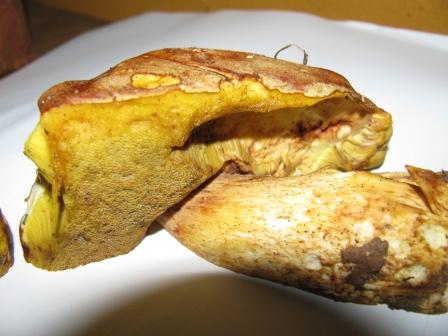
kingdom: Fungi
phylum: Basidiomycota
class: Agaricomycetes
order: Boletales
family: Boletaceae
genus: Aureoboletus
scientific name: Aureoboletus gentilis
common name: guldrørhat
